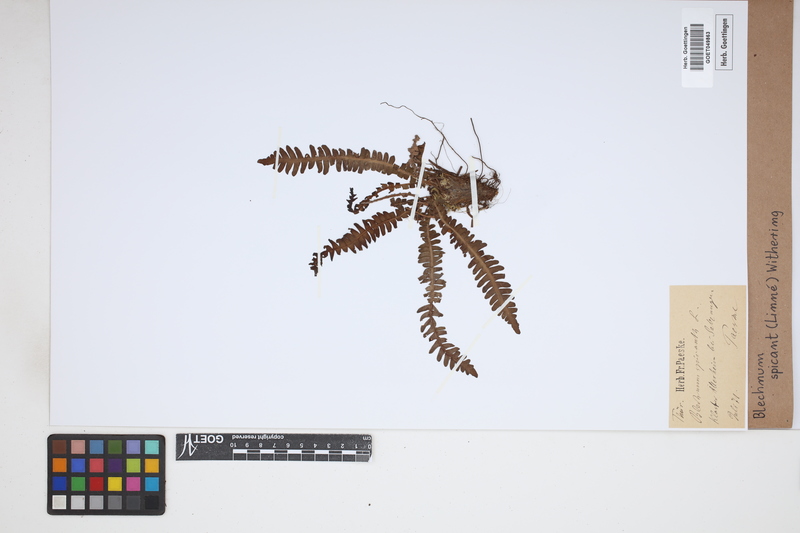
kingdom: Plantae
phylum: Tracheophyta
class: Polypodiopsida
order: Polypodiales
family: Blechnaceae
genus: Struthiopteris
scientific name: Struthiopteris spicant
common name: Deer fern
